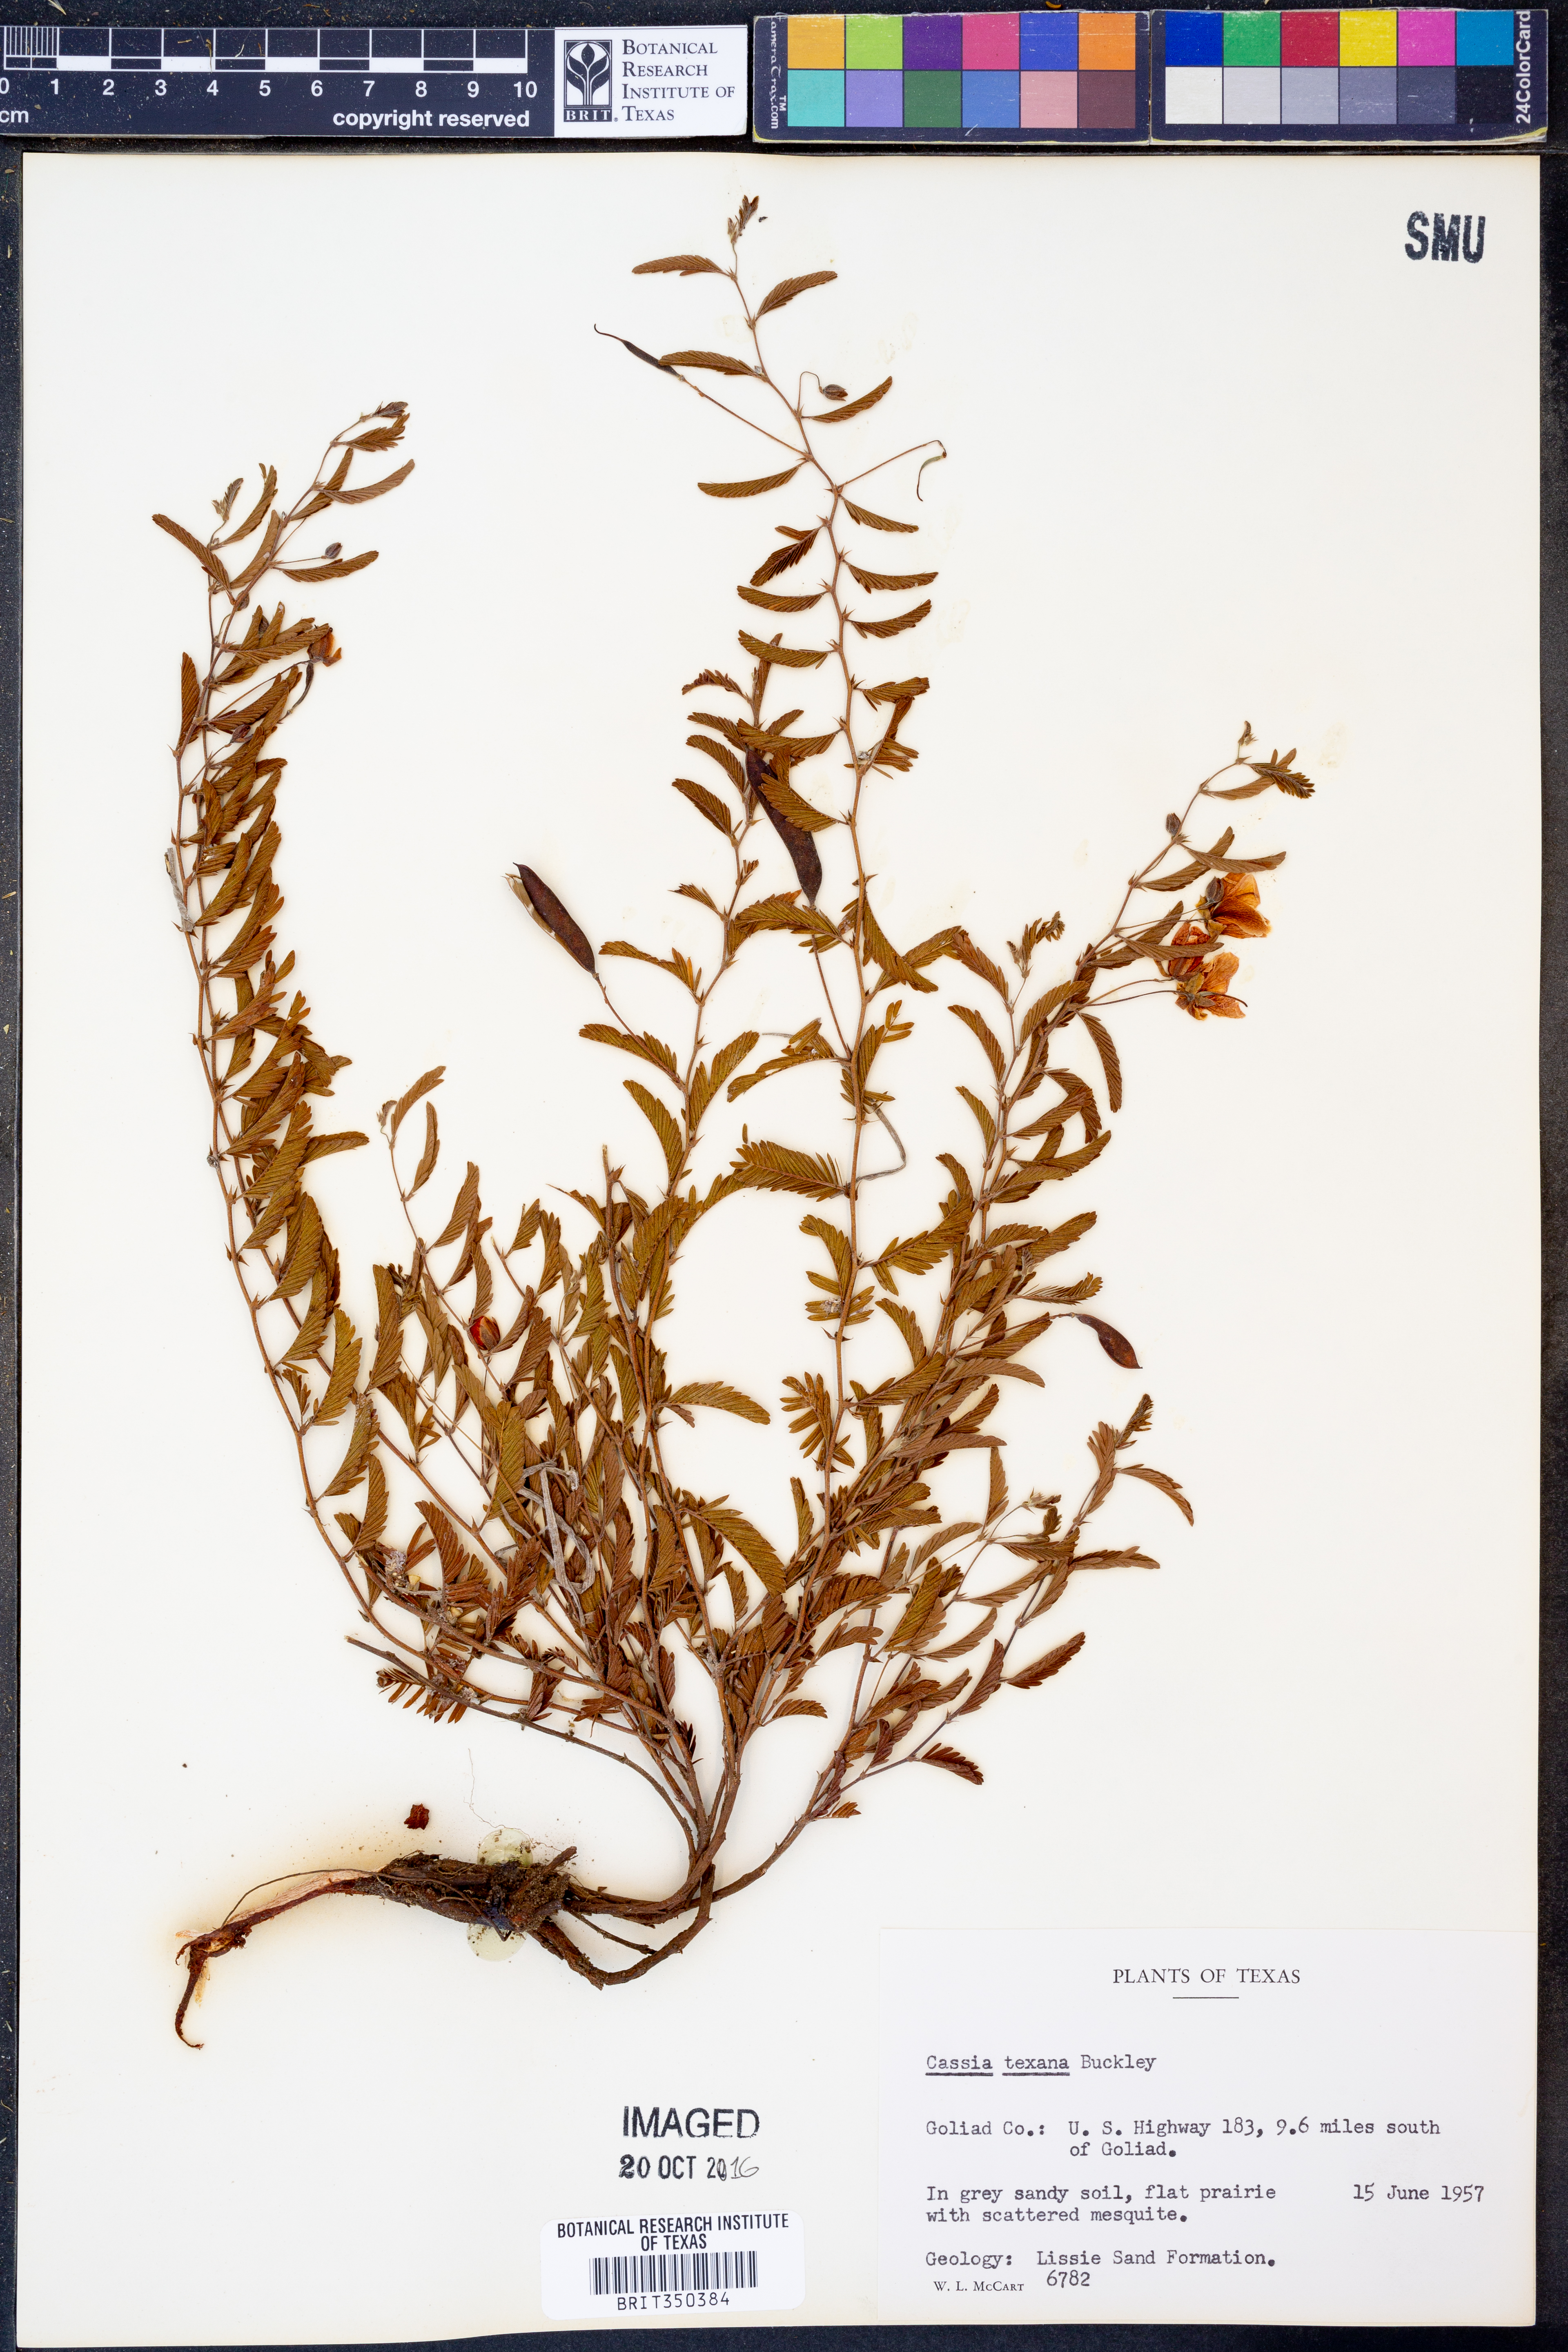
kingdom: Plantae
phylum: Tracheophyta
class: Magnoliopsida
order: Fabales
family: Fabaceae
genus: Chamaecrista
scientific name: Chamaecrista flexuosa
